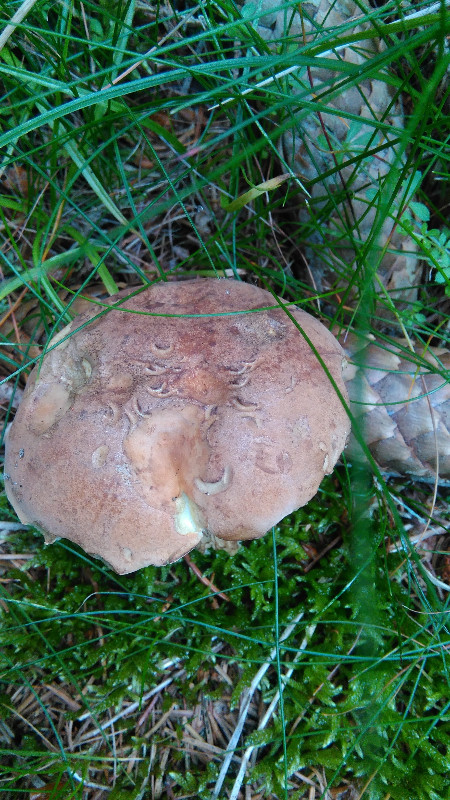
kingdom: Fungi
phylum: Basidiomycota
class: Agaricomycetes
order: Boletales
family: Boletaceae
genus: Tylopilus
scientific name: Tylopilus felleus
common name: galderørhat
